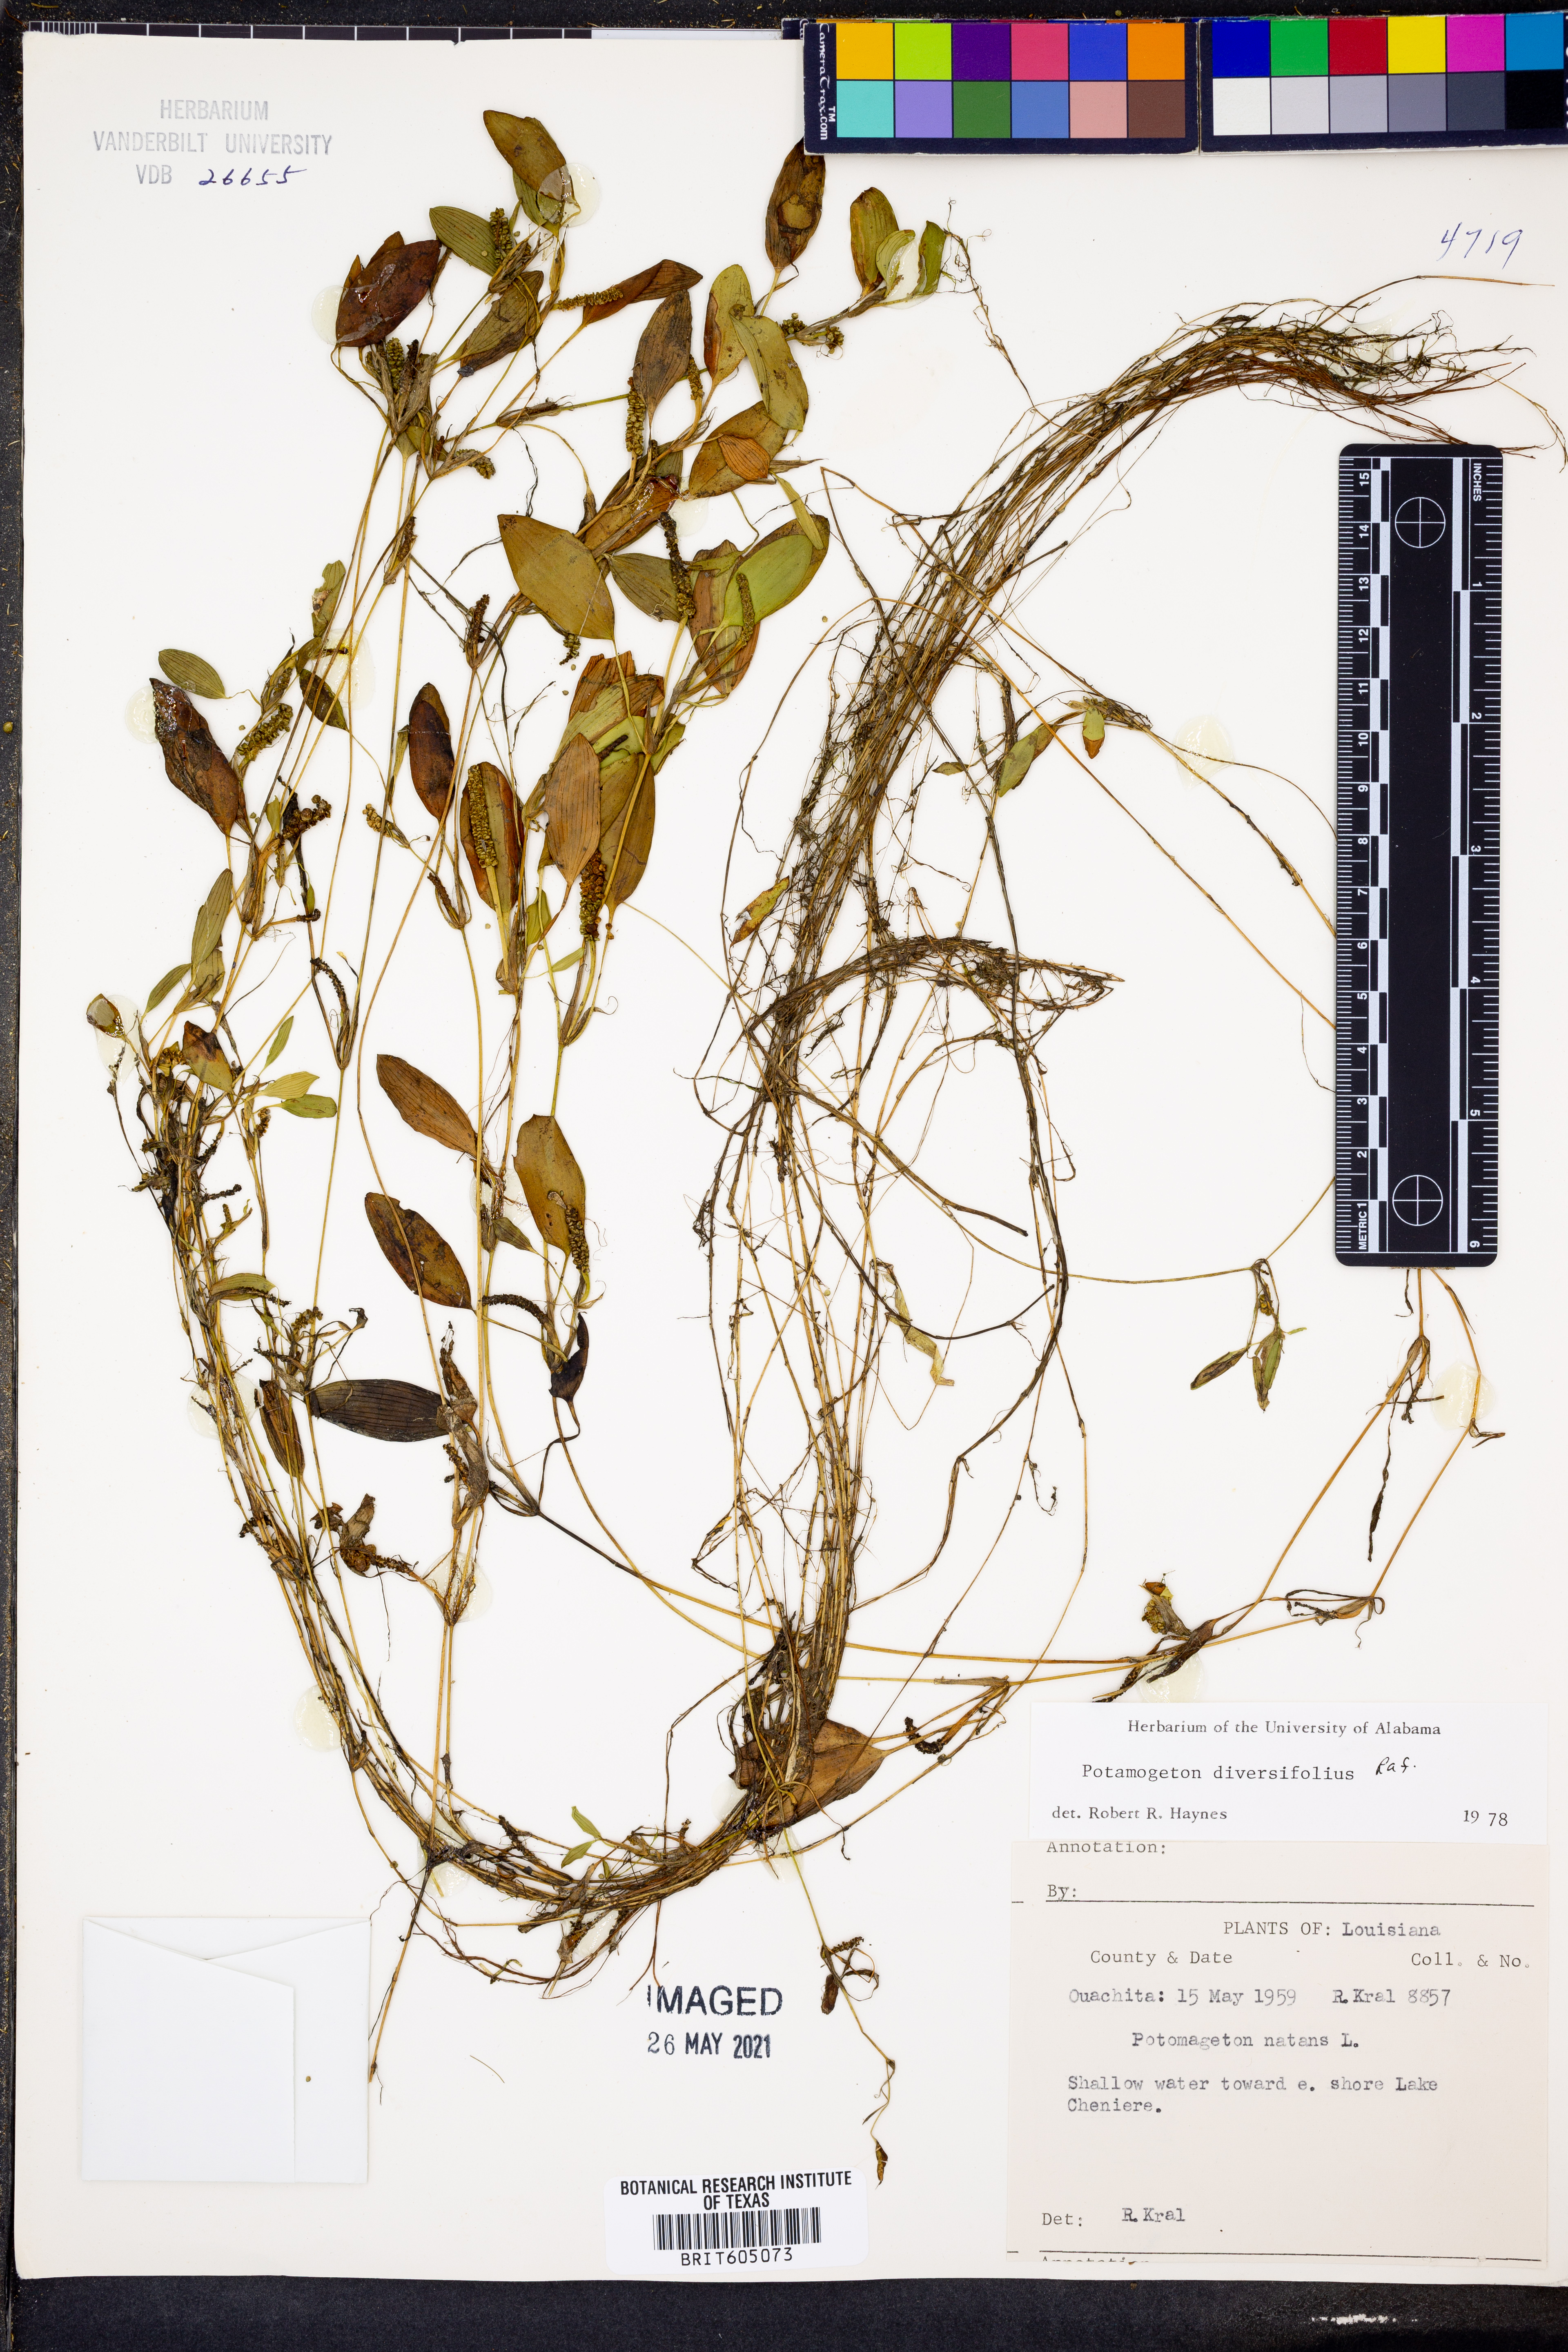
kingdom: Plantae
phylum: Tracheophyta
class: Liliopsida
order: Alismatales
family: Potamogetonaceae
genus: Potamogeton
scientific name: Potamogeton diversifolius
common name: Water-thread pondweed
